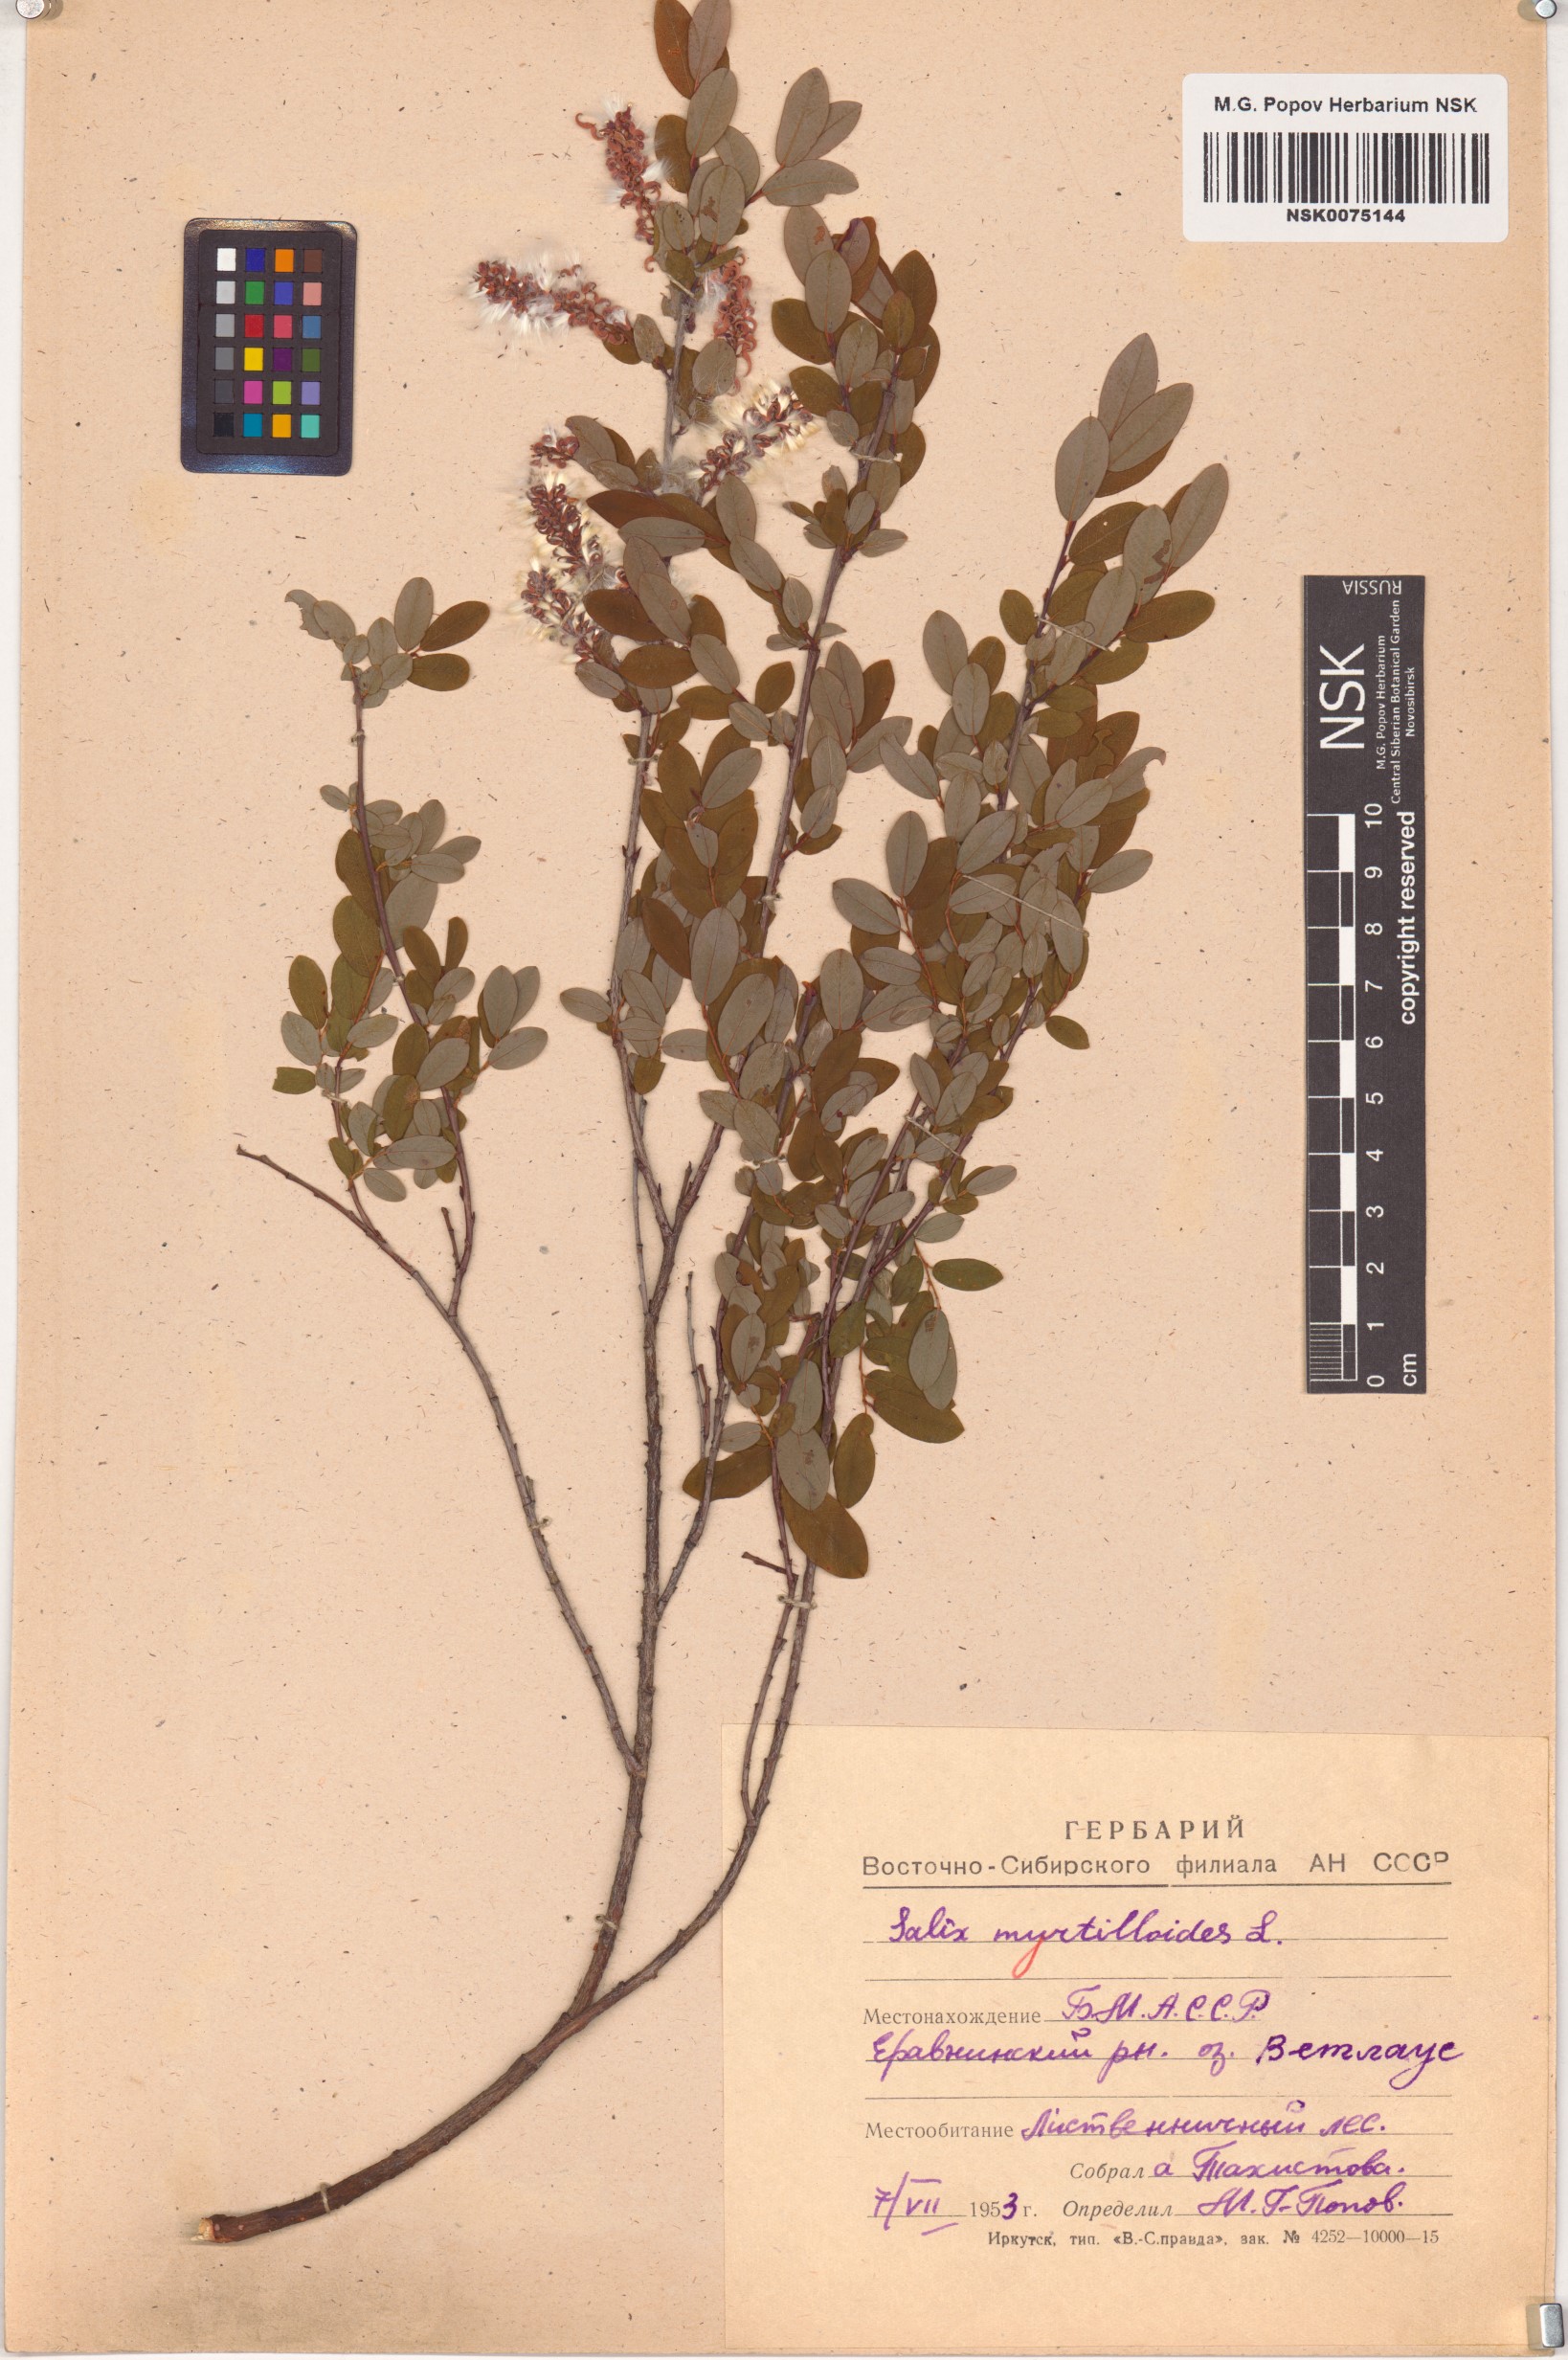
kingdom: Plantae
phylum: Tracheophyta
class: Magnoliopsida
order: Malpighiales
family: Salicaceae
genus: Salix
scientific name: Salix myrtilloides
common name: Myrtle-leaved willow
